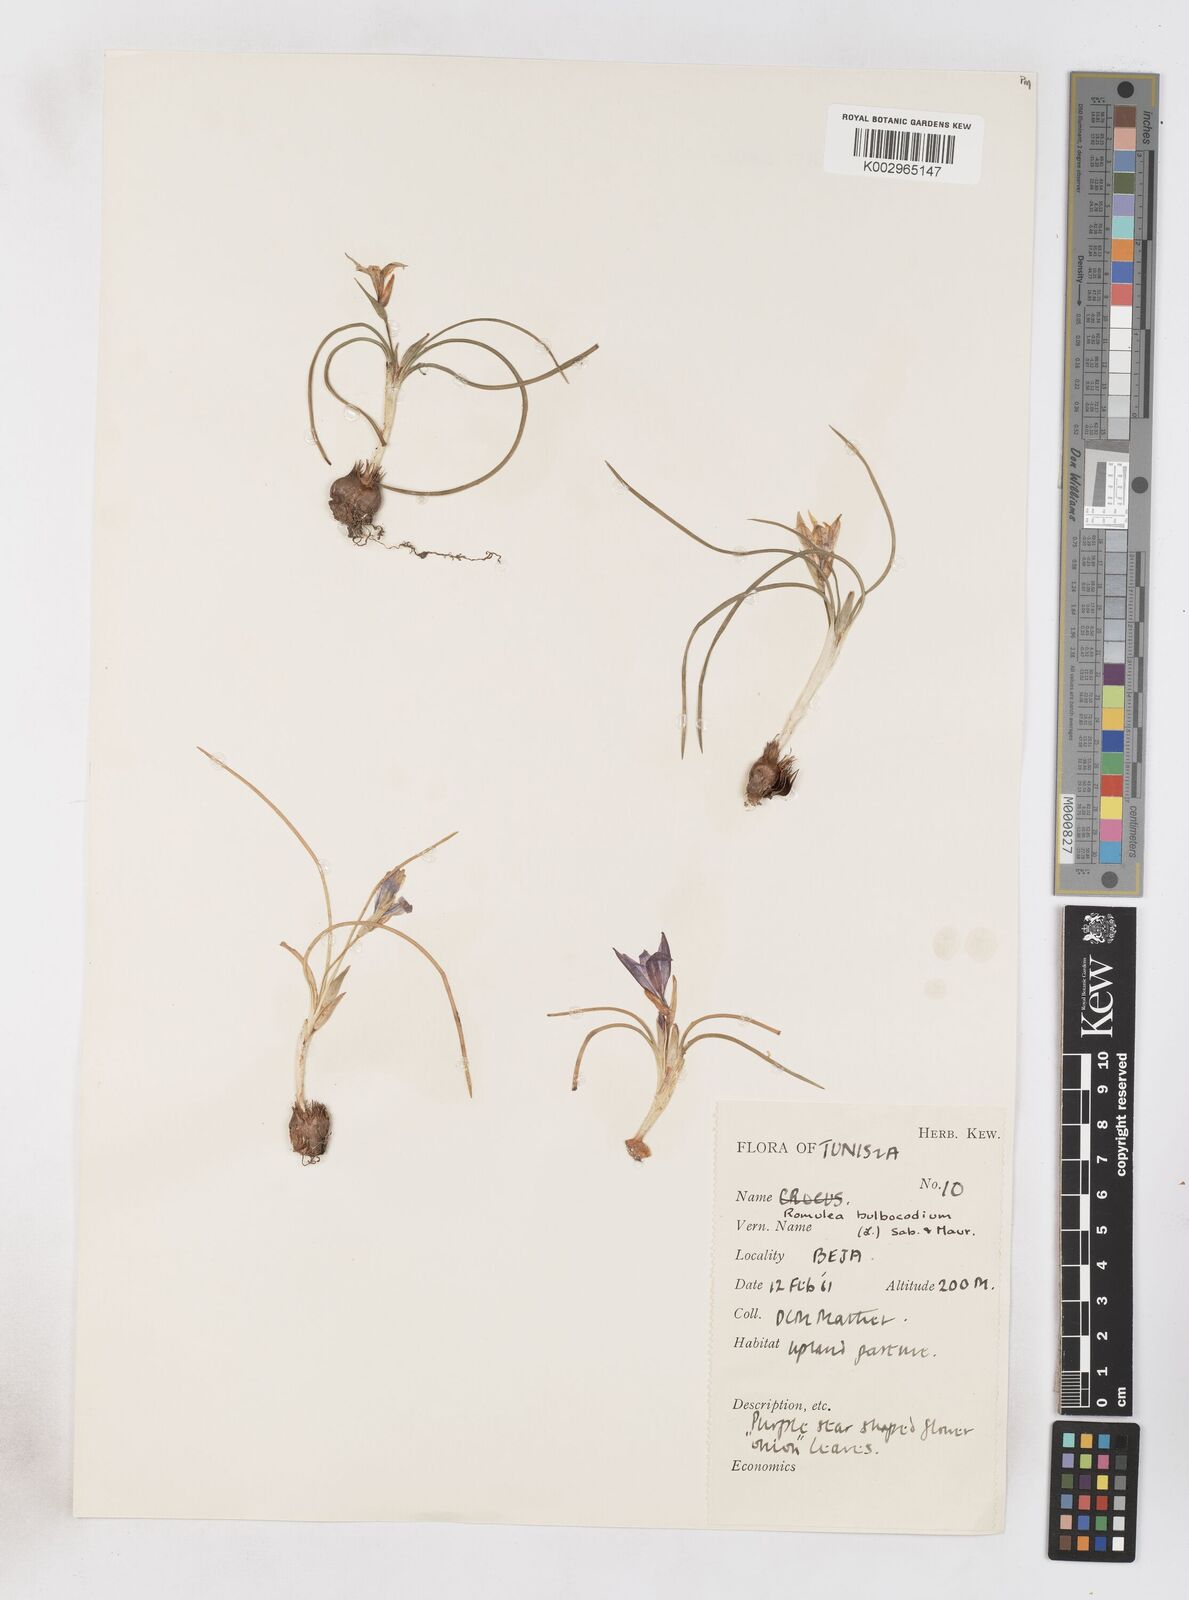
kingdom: Plantae
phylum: Tracheophyta
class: Liliopsida
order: Asparagales
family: Iridaceae
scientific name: Iridaceae
